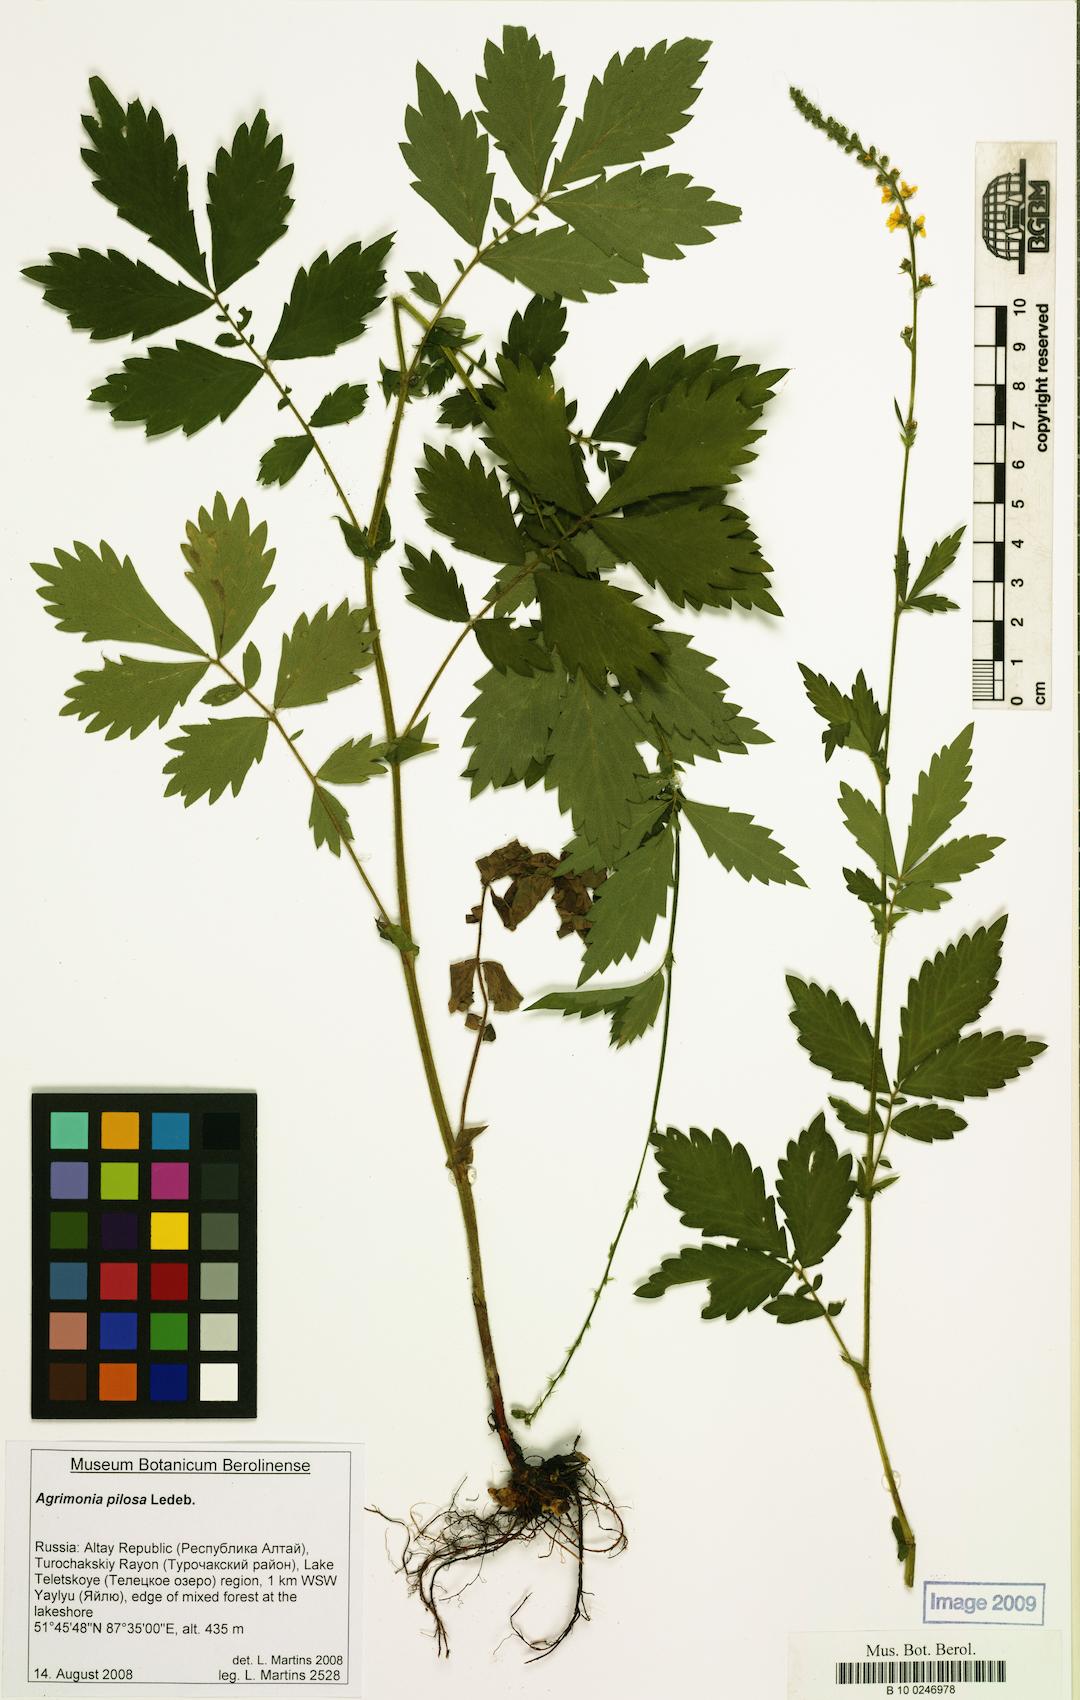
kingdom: Plantae
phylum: Tracheophyta
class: Magnoliopsida
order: Rosales
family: Rosaceae
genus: Agrimonia
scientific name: Agrimonia pilosa
